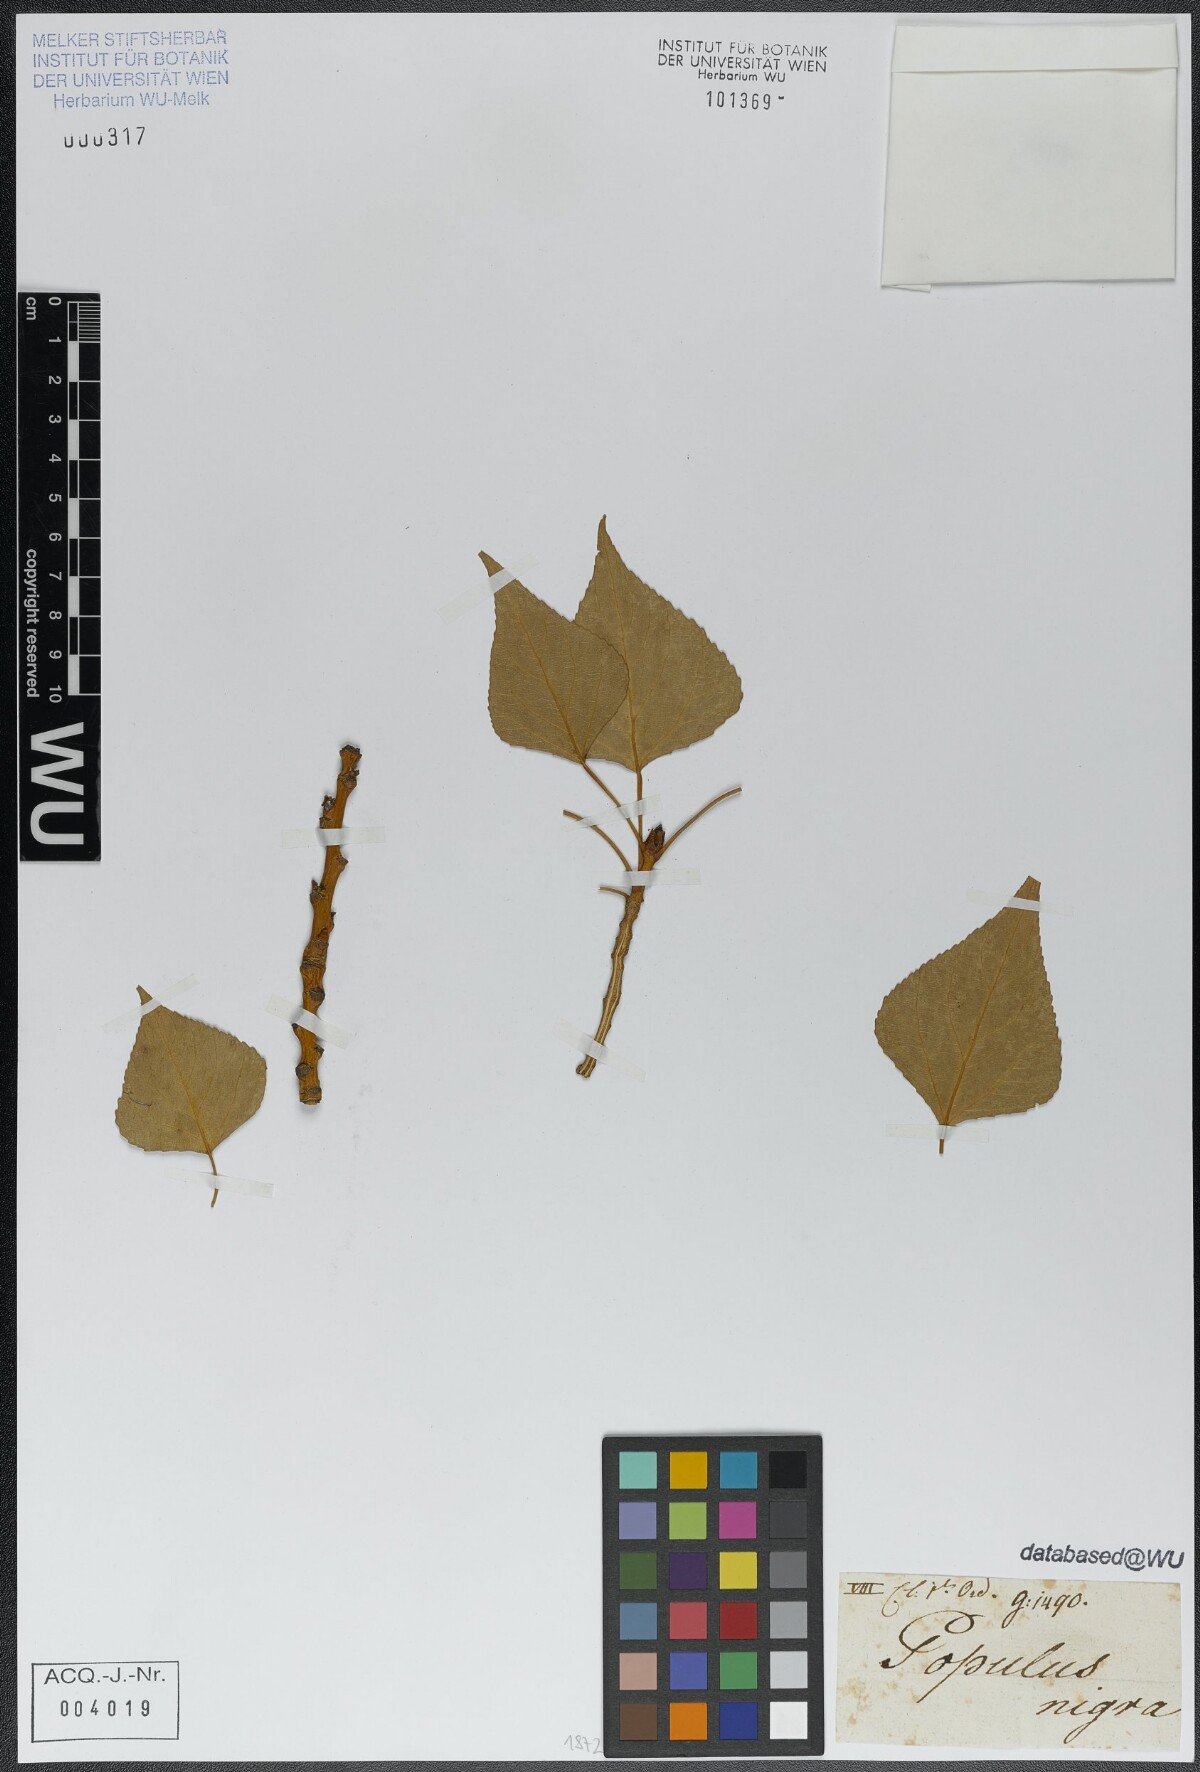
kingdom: Plantae
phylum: Tracheophyta
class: Magnoliopsida
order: Malpighiales
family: Salicaceae
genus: Populus
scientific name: Populus nigra
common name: Black poplar
